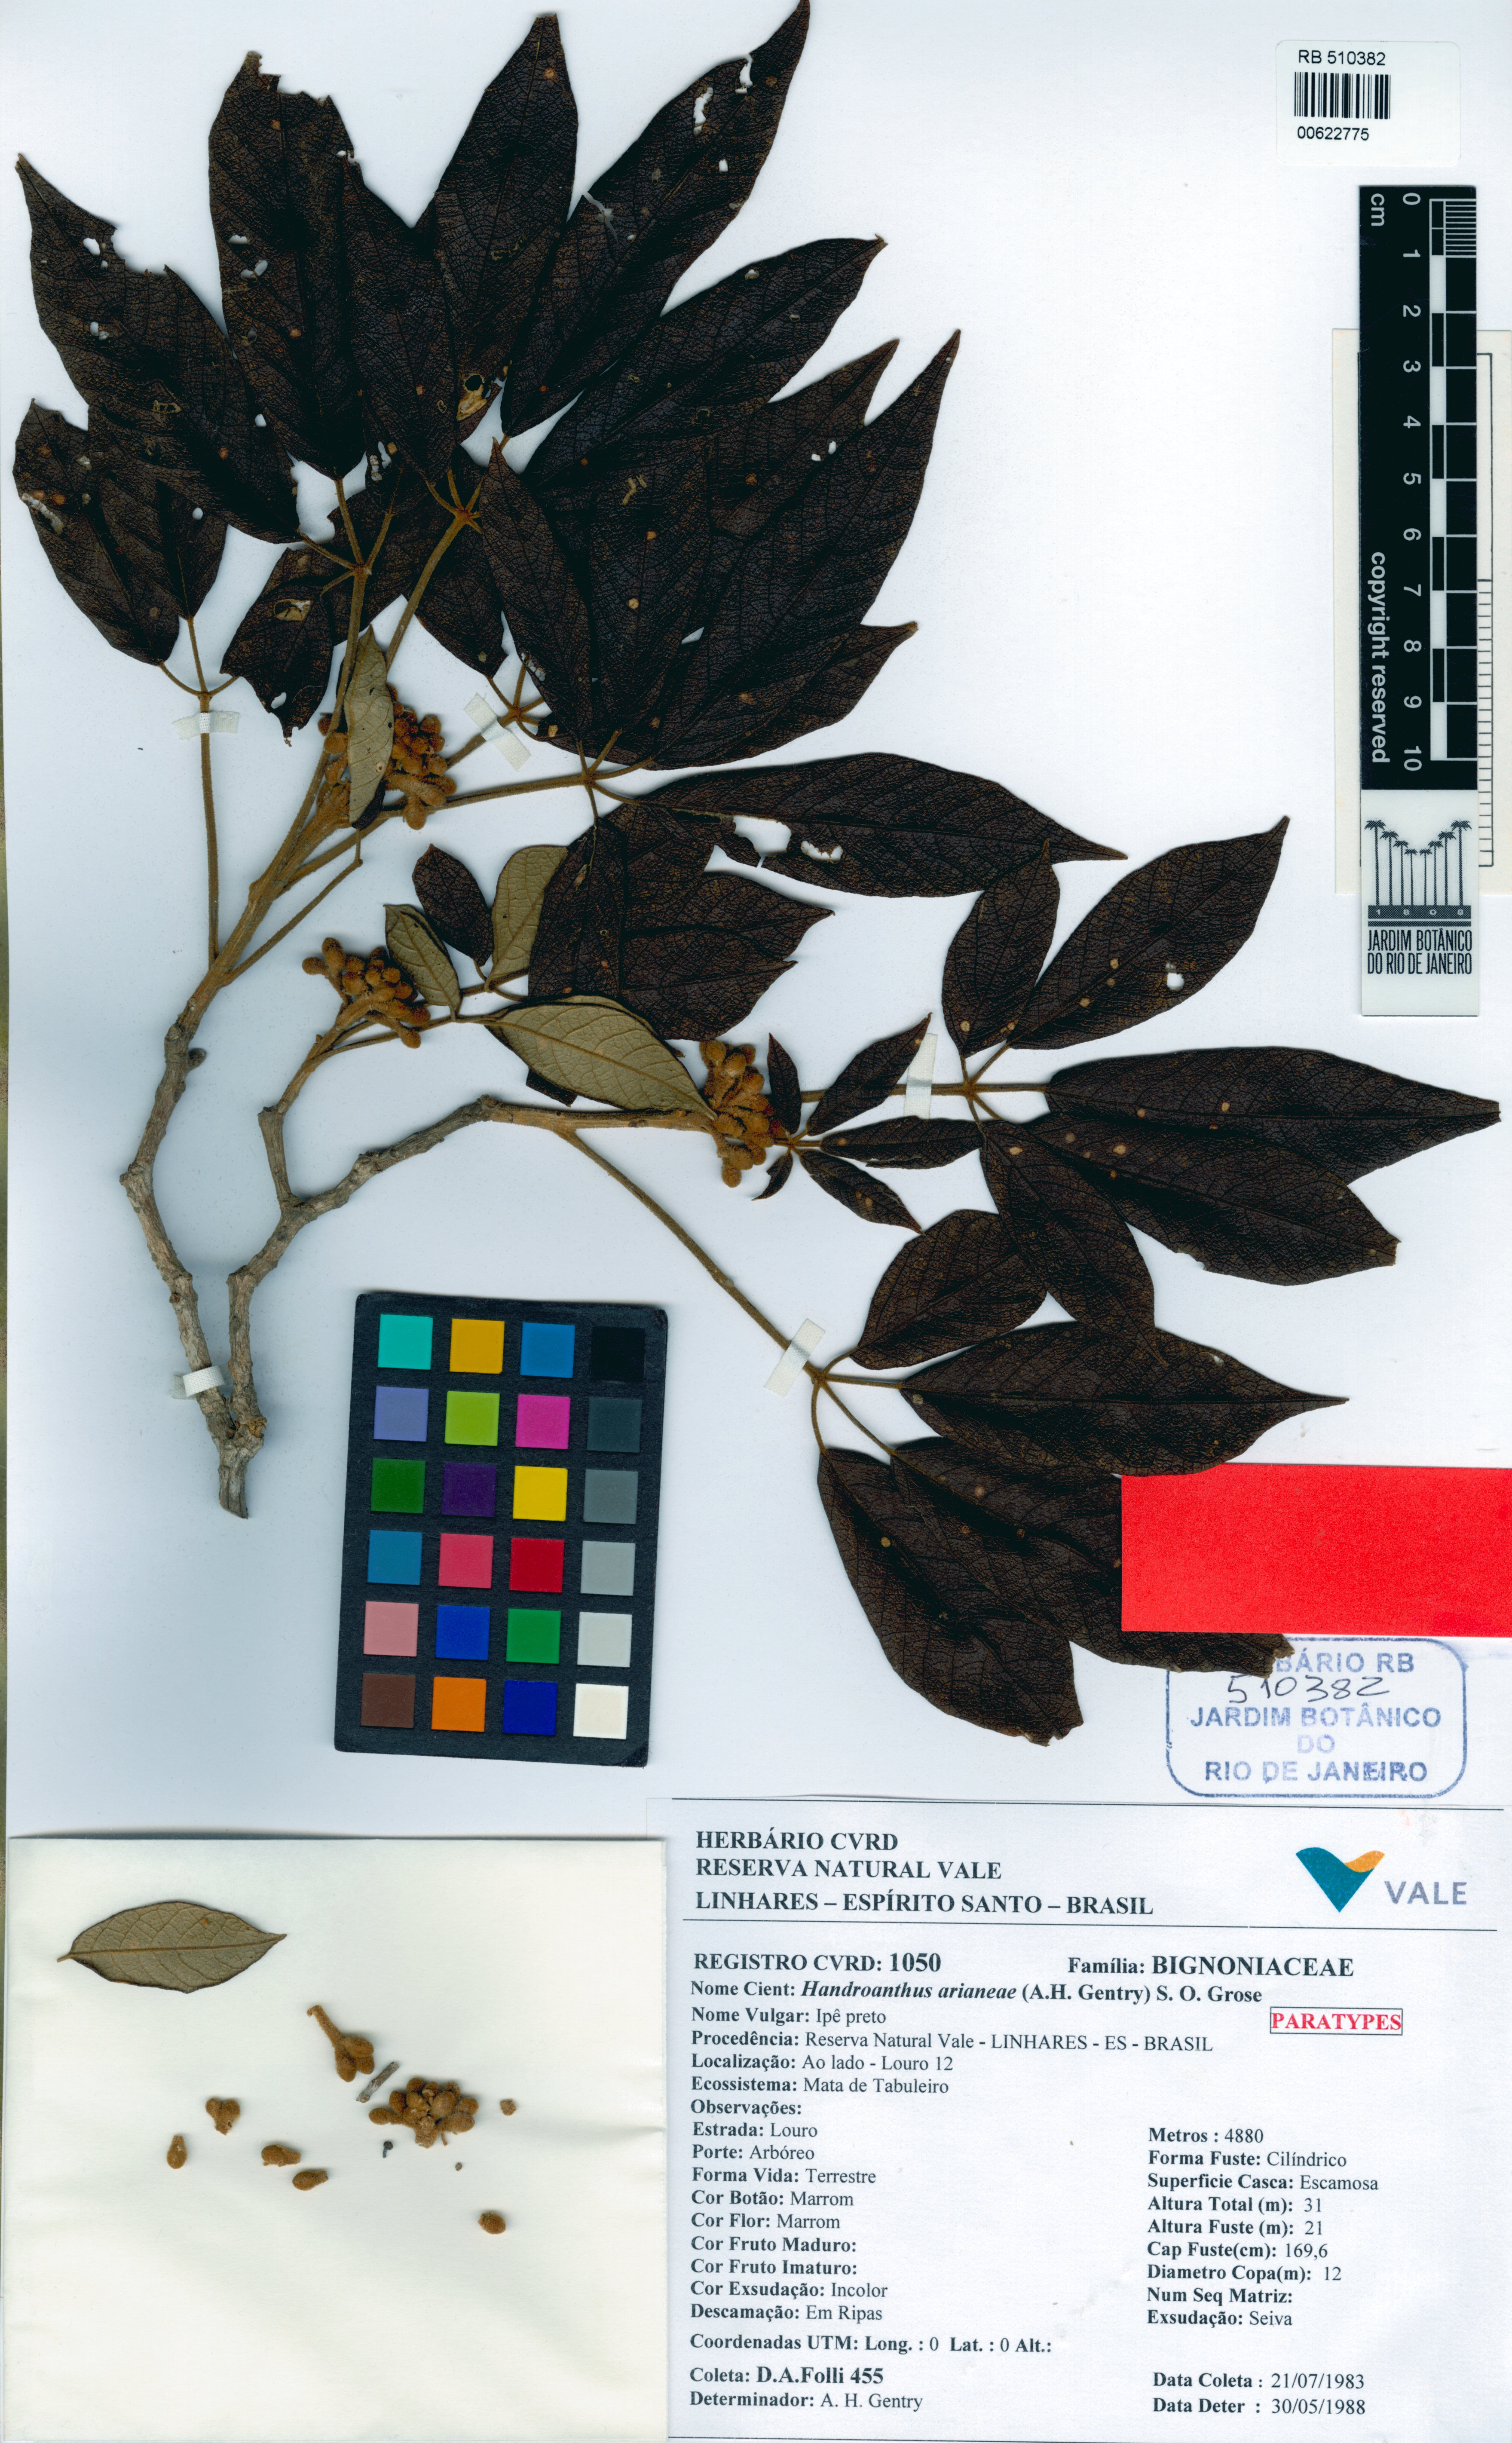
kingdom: Plantae
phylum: Tracheophyta
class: Magnoliopsida
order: Lamiales
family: Bignoniaceae
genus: Handroanthus
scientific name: Handroanthus arianeae
